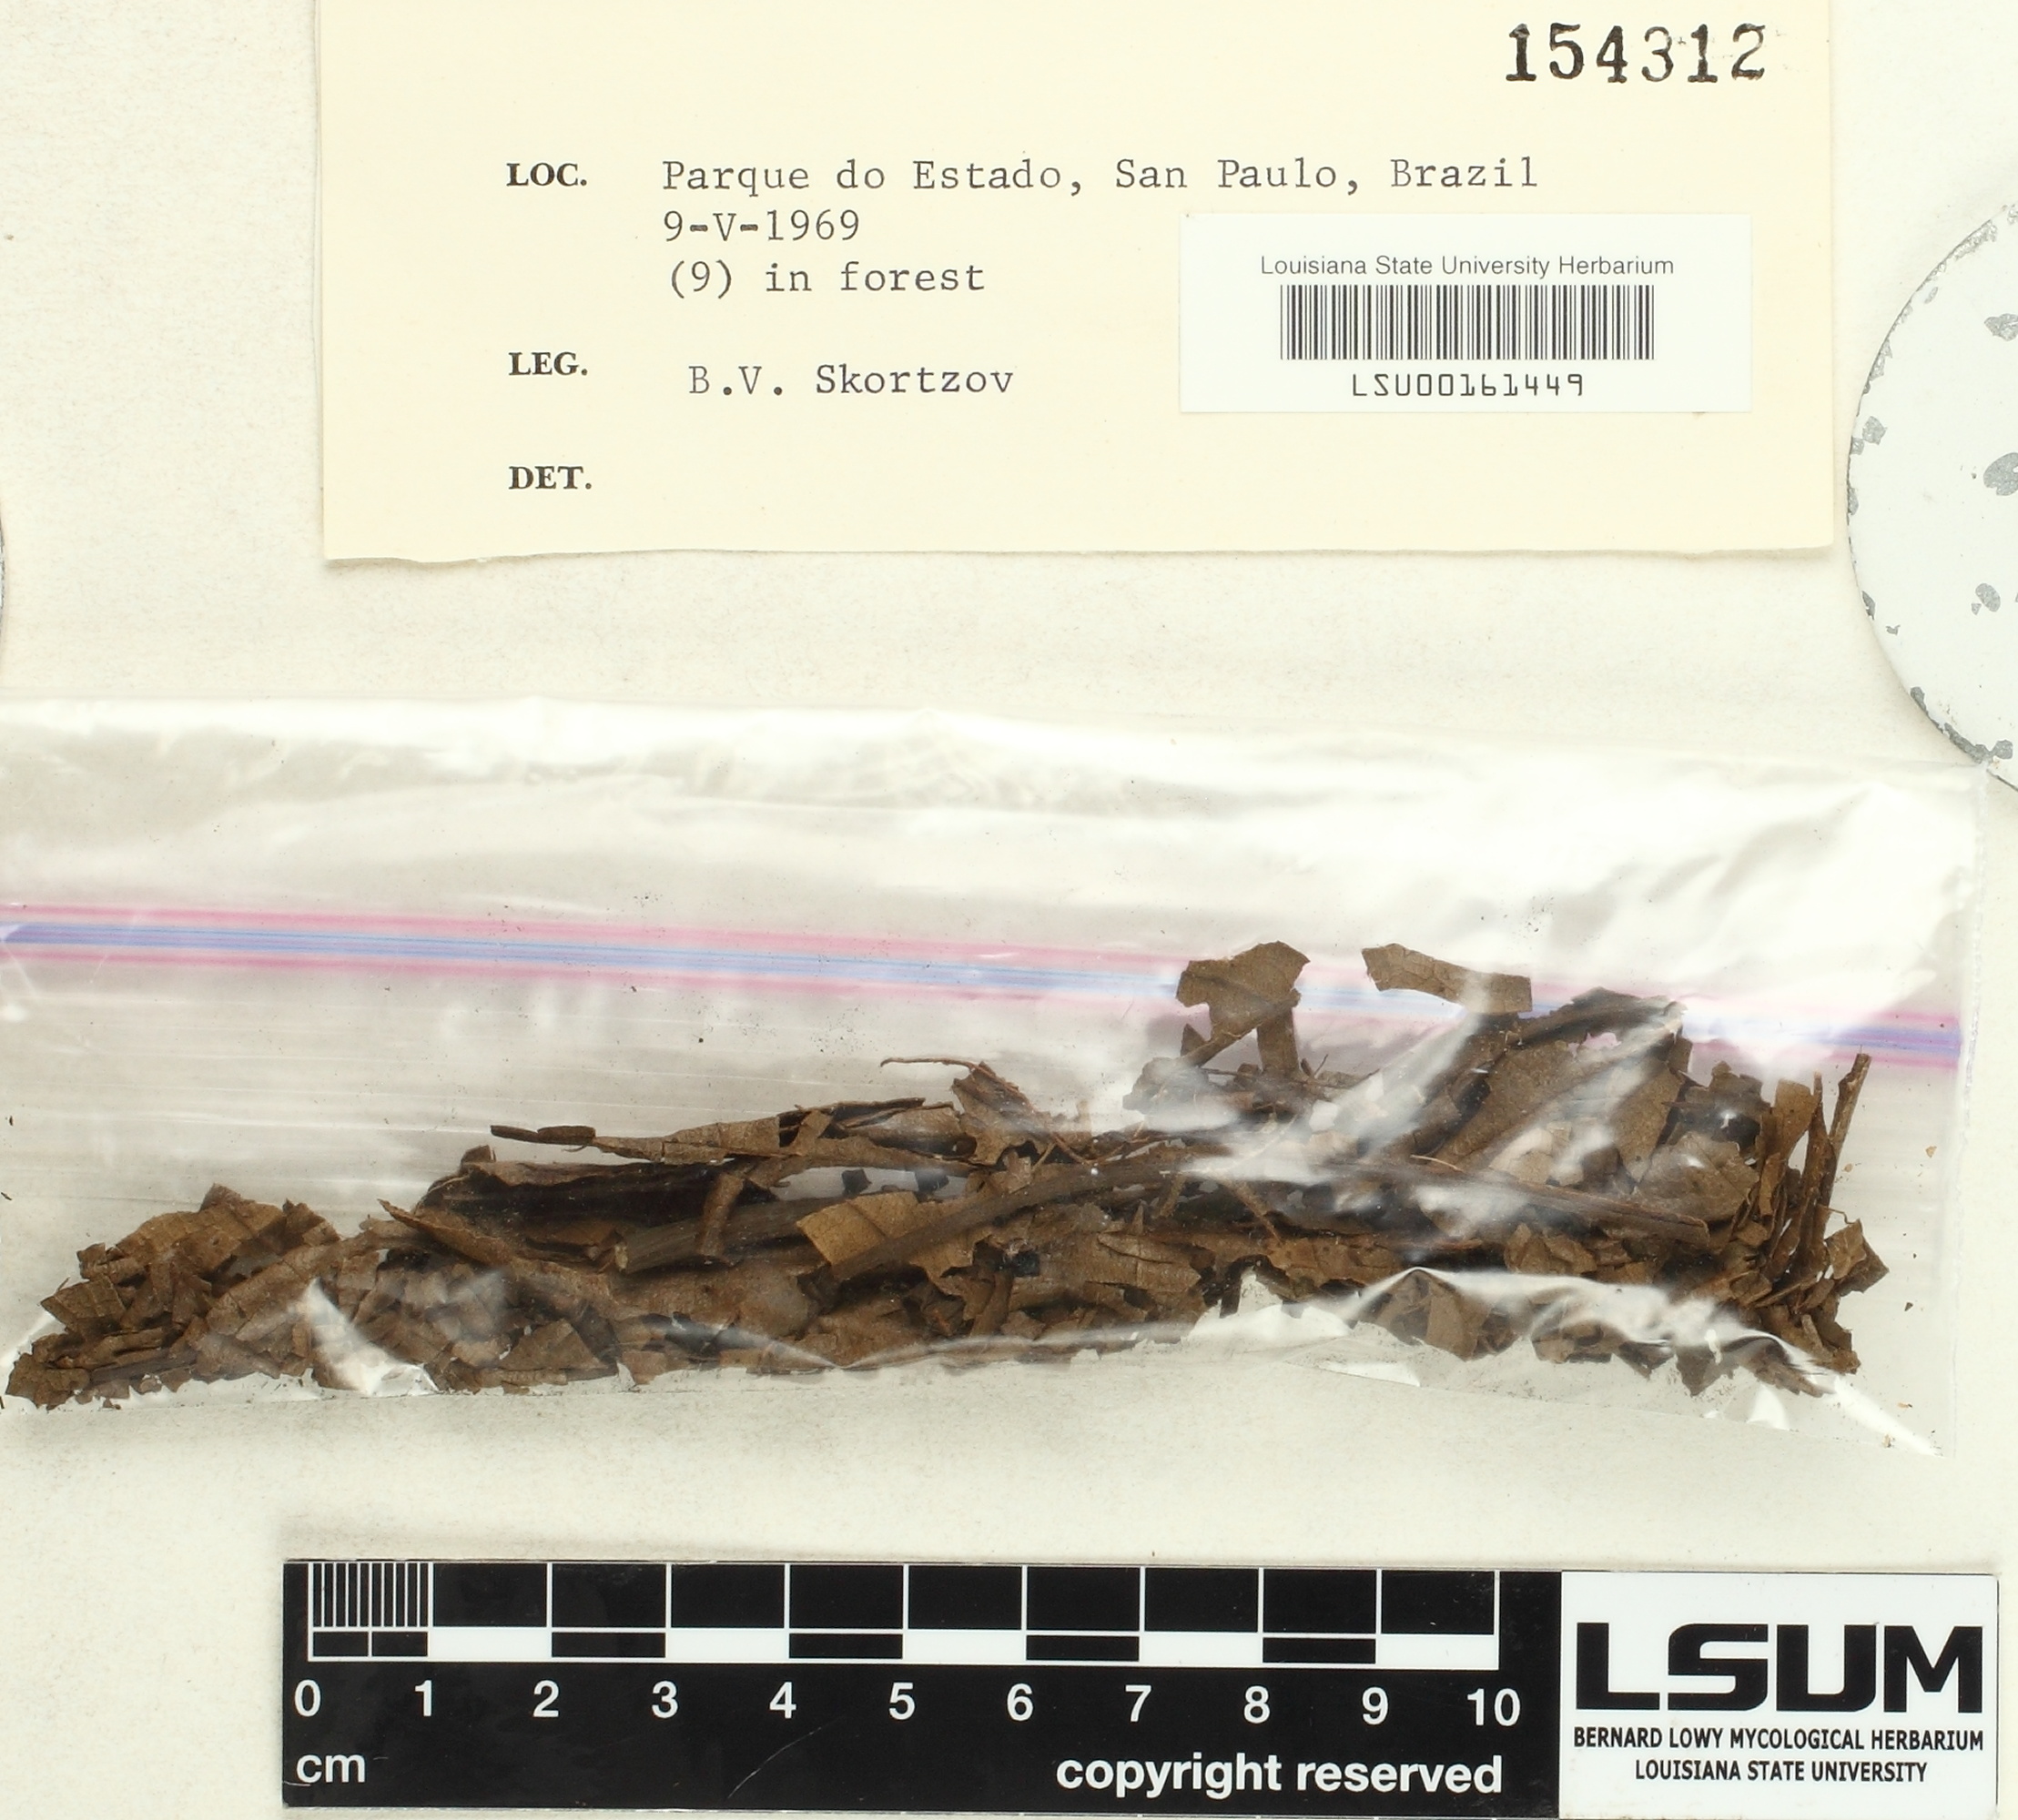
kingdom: Fungi
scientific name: Fungi
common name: Fungi
